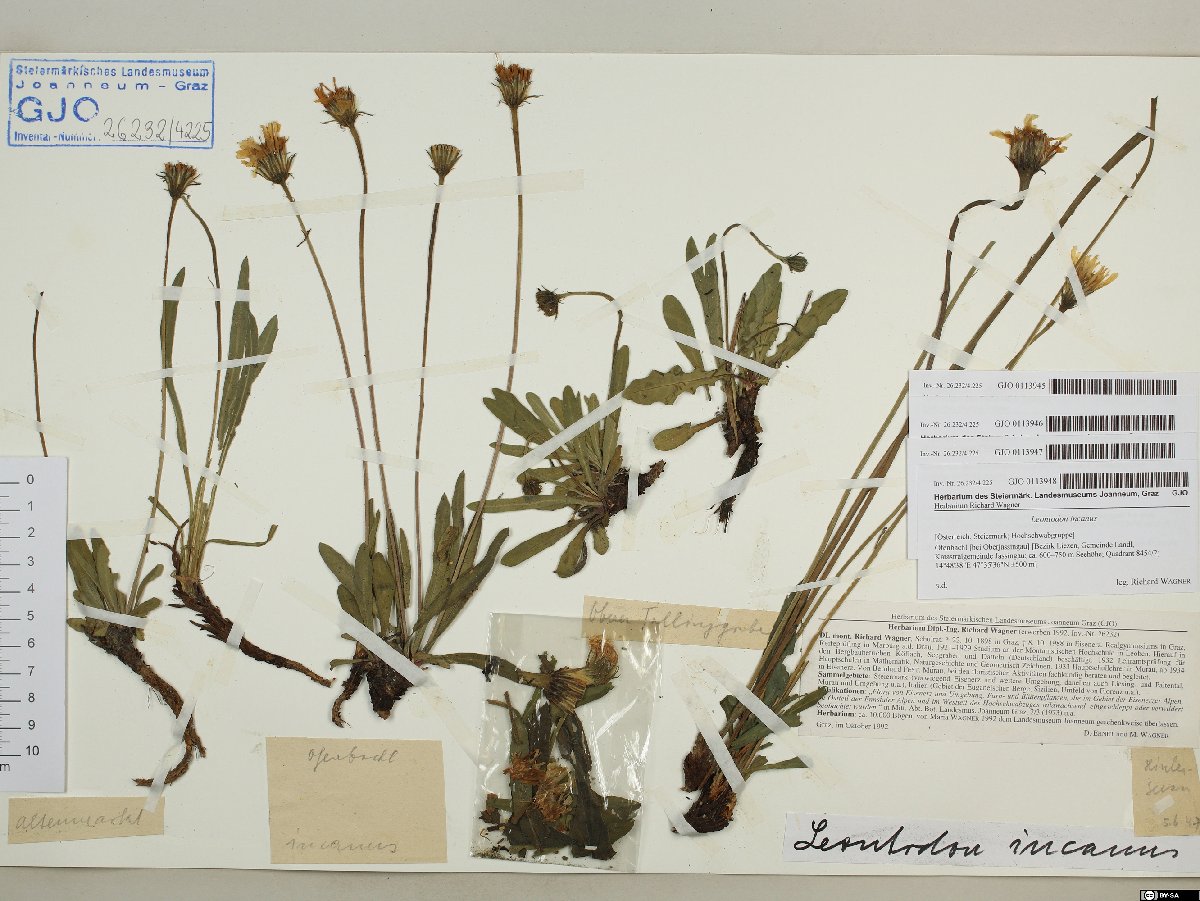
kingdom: Plantae
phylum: Tracheophyta
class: Magnoliopsida
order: Asterales
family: Asteraceae
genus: Leontodon
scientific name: Leontodon incanus
